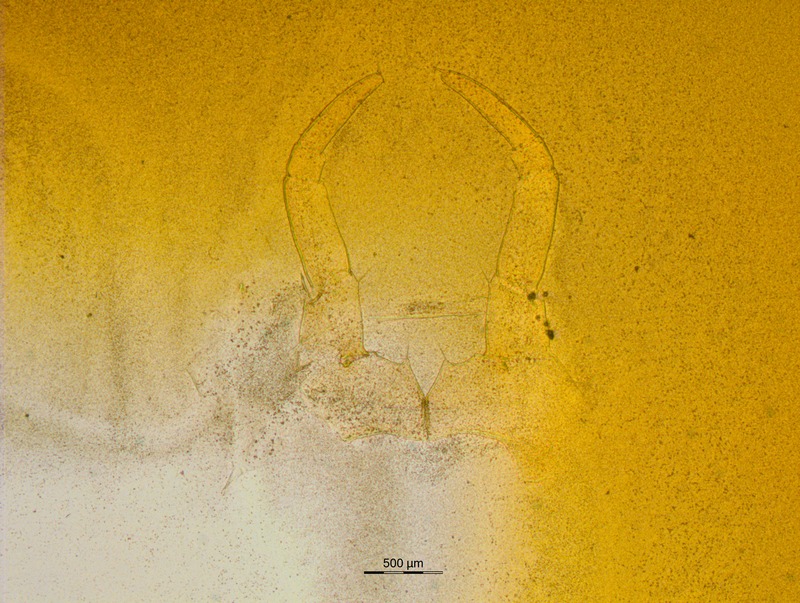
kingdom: Animalia
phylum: Arthropoda
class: Diplopoda
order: Glomerida
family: Glomeridae
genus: Rhopalomeris
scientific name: Rhopalomeris carnifex
